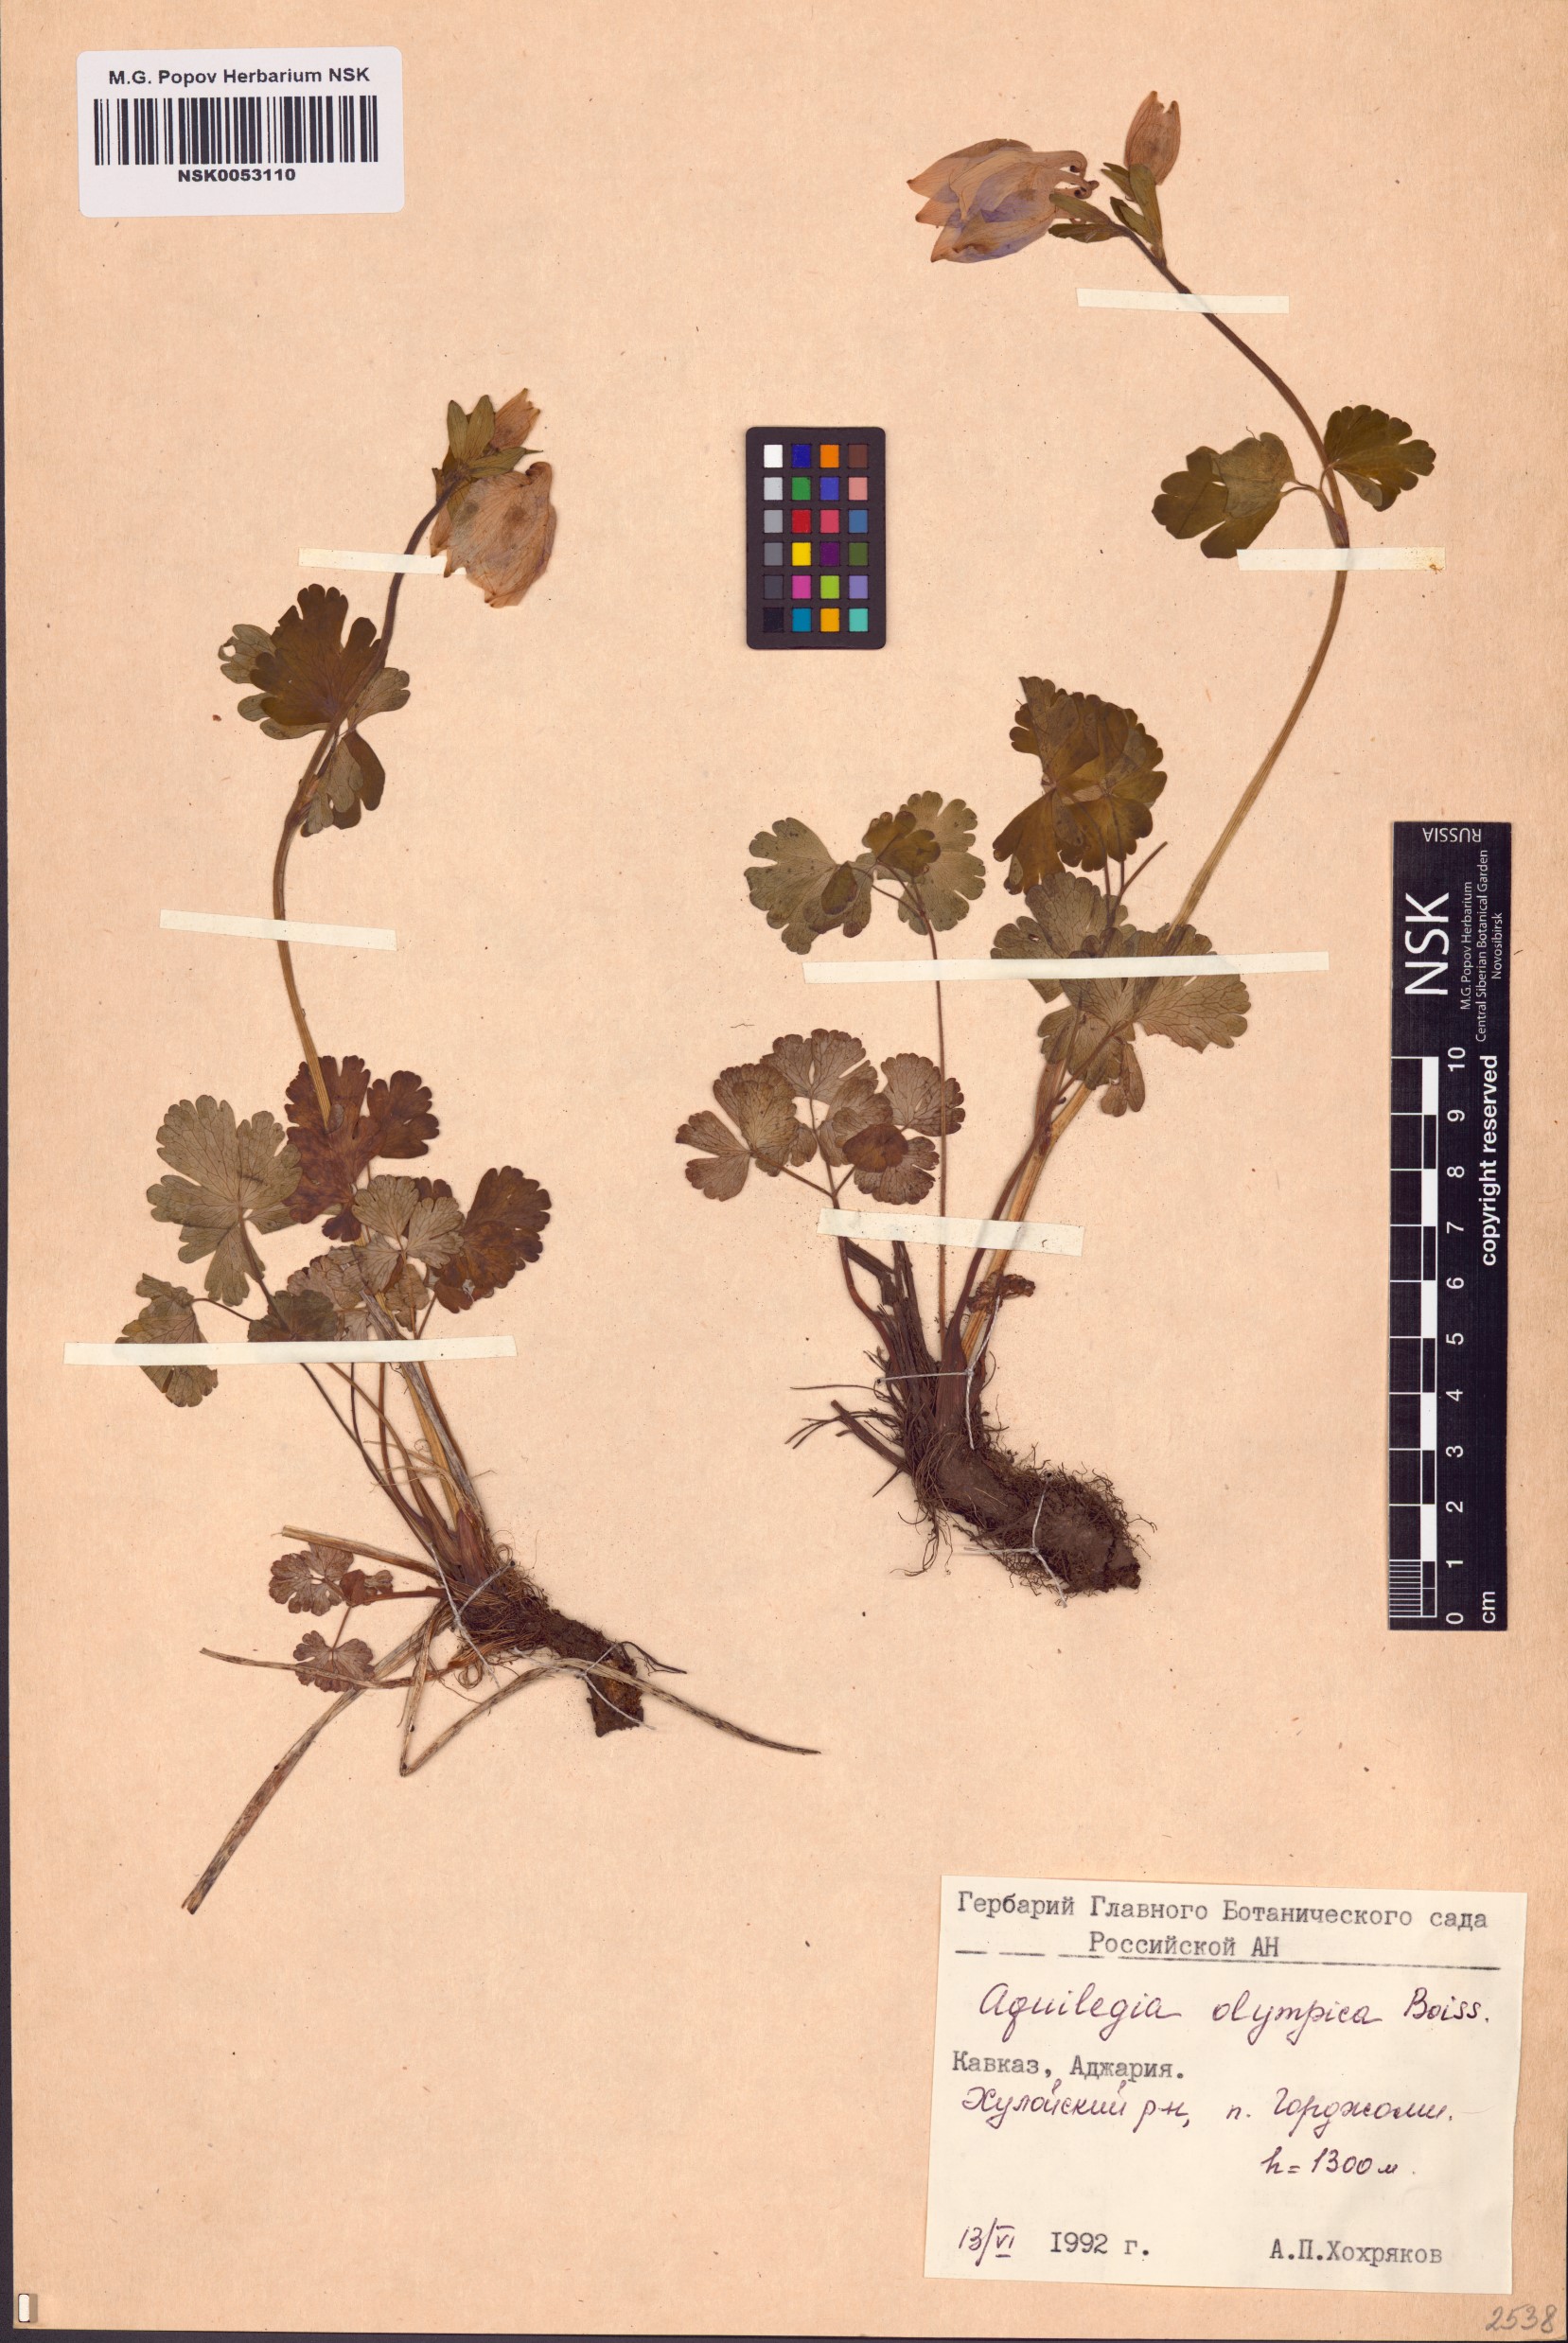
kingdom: Plantae
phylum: Tracheophyta
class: Magnoliopsida
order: Ranunculales
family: Ranunculaceae
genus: Aquilegia
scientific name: Aquilegia olympica
